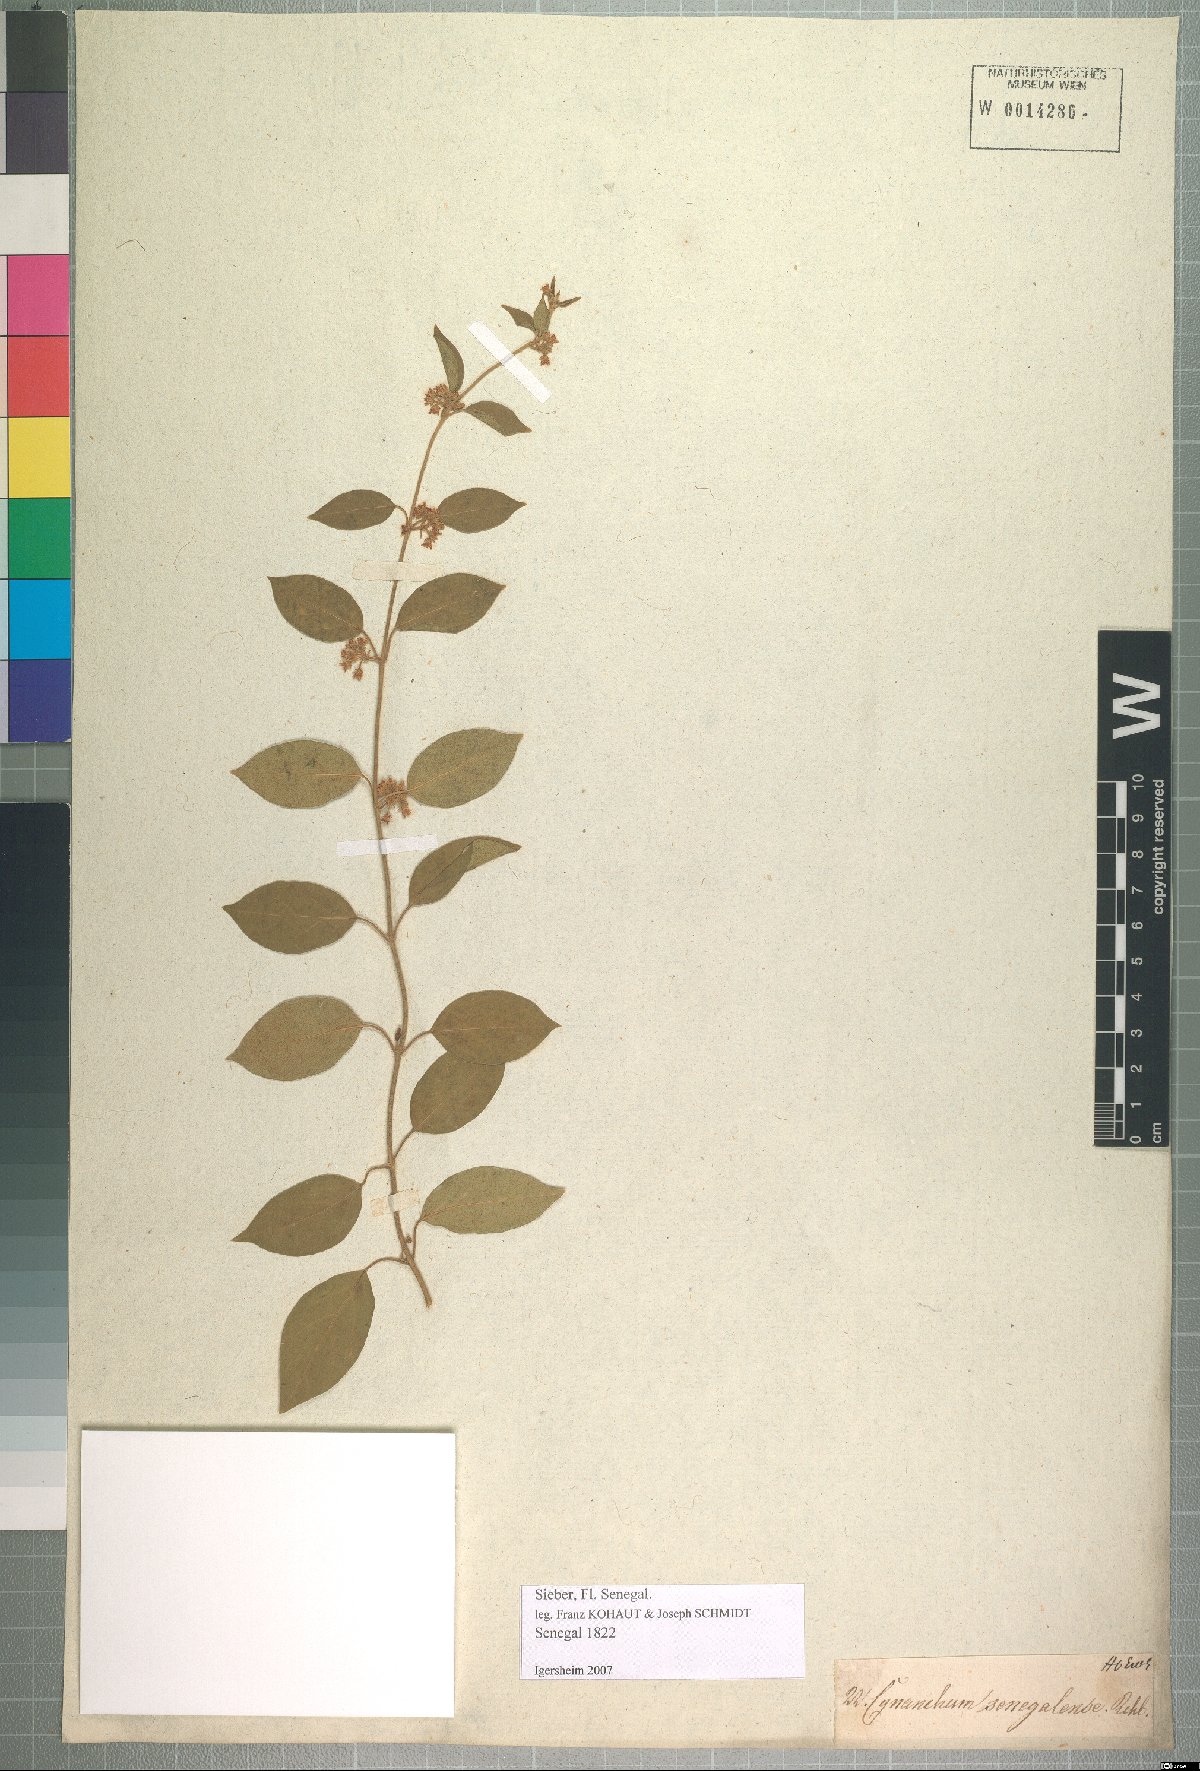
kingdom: Plantae
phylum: Tracheophyta
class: Magnoliopsida
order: Gentianales
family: Apocynaceae
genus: Gymnema
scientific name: Gymnema sylvestre
